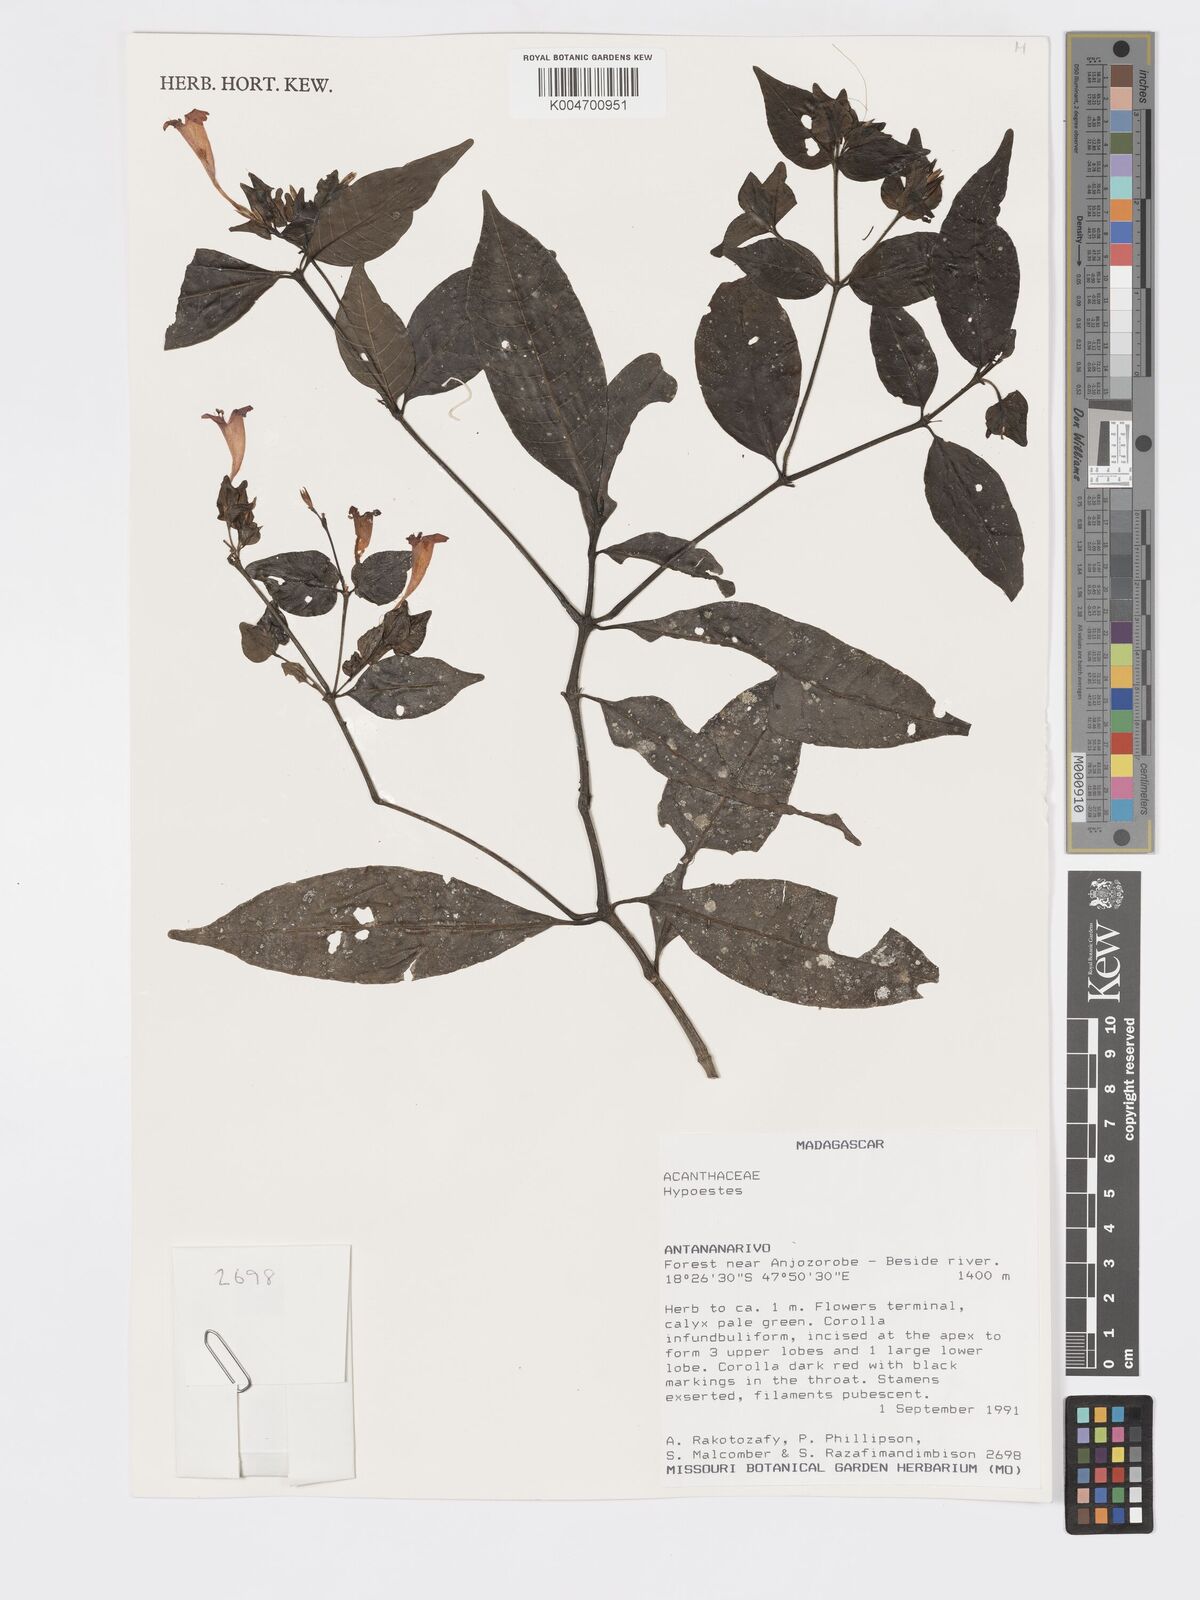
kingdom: Plantae
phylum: Tracheophyta
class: Magnoliopsida
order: Lamiales
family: Acanthaceae
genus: Hypoestes
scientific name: Hypoestes
